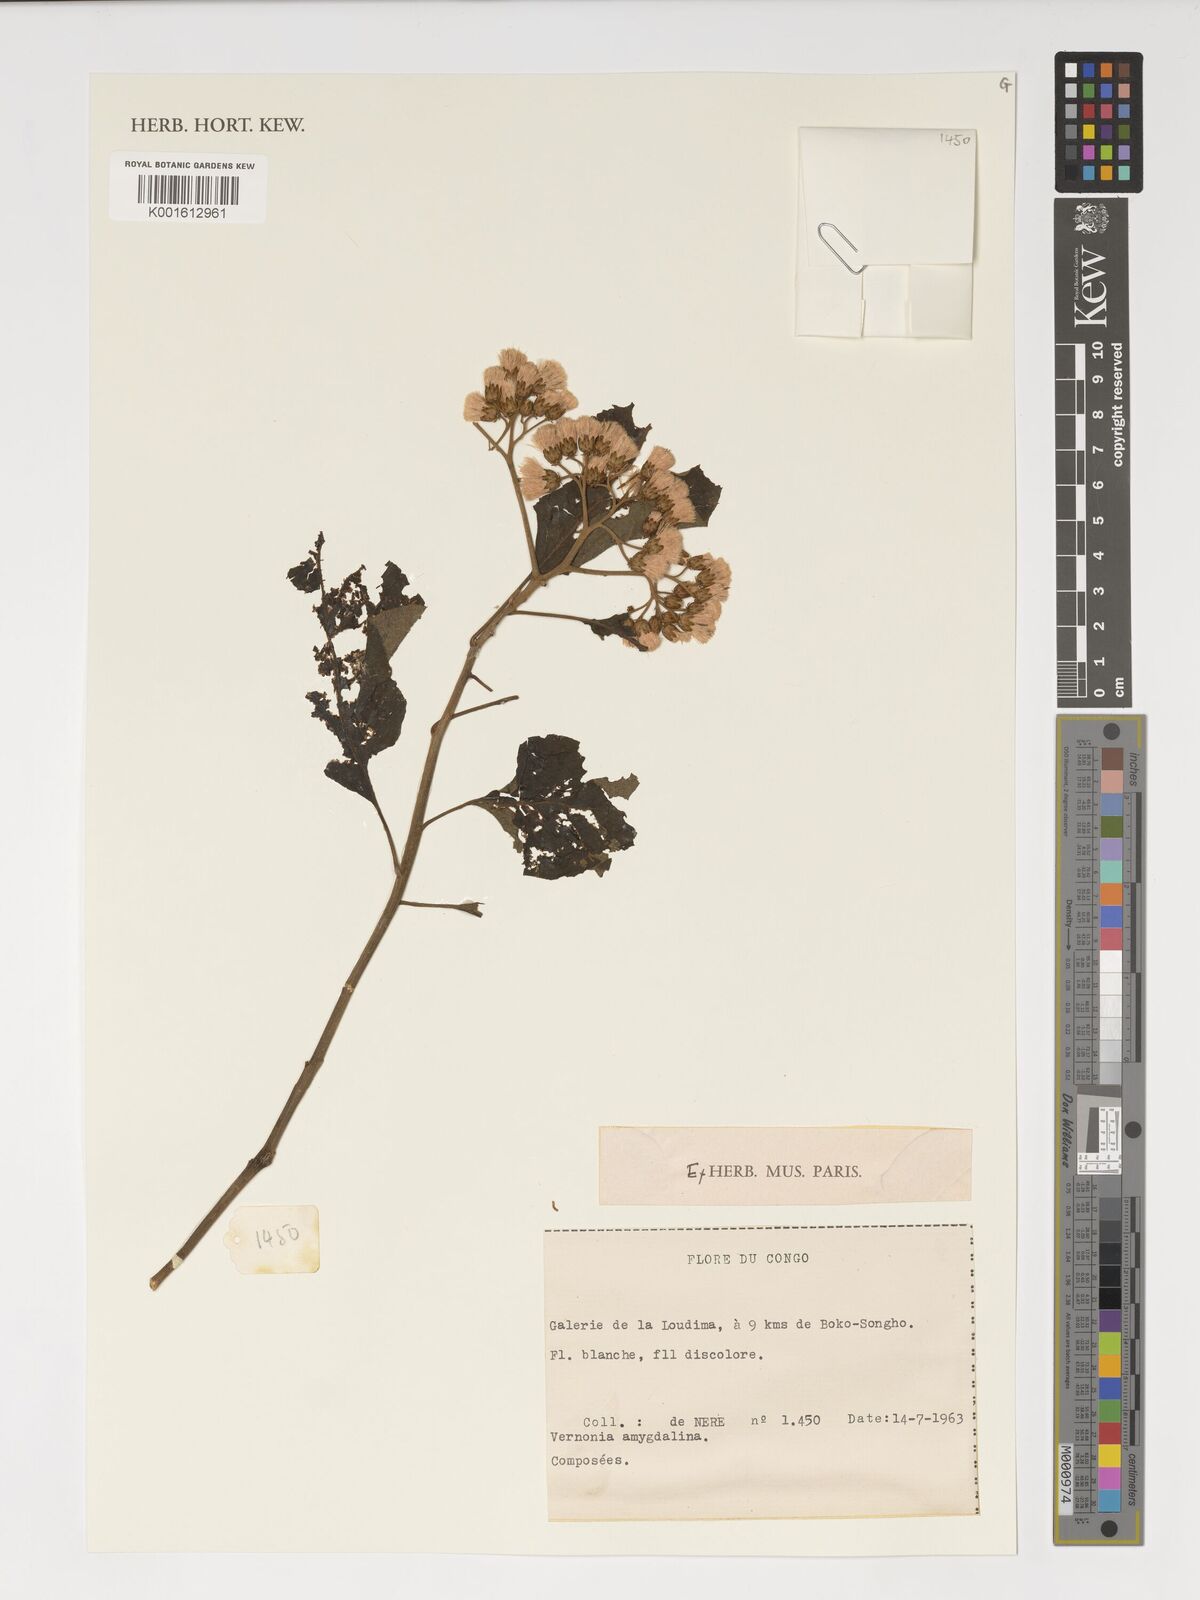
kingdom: Plantae
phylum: Tracheophyta
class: Magnoliopsida
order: Asterales
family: Asteraceae
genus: Gymnanthemum
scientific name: Gymnanthemum amygdalinum
